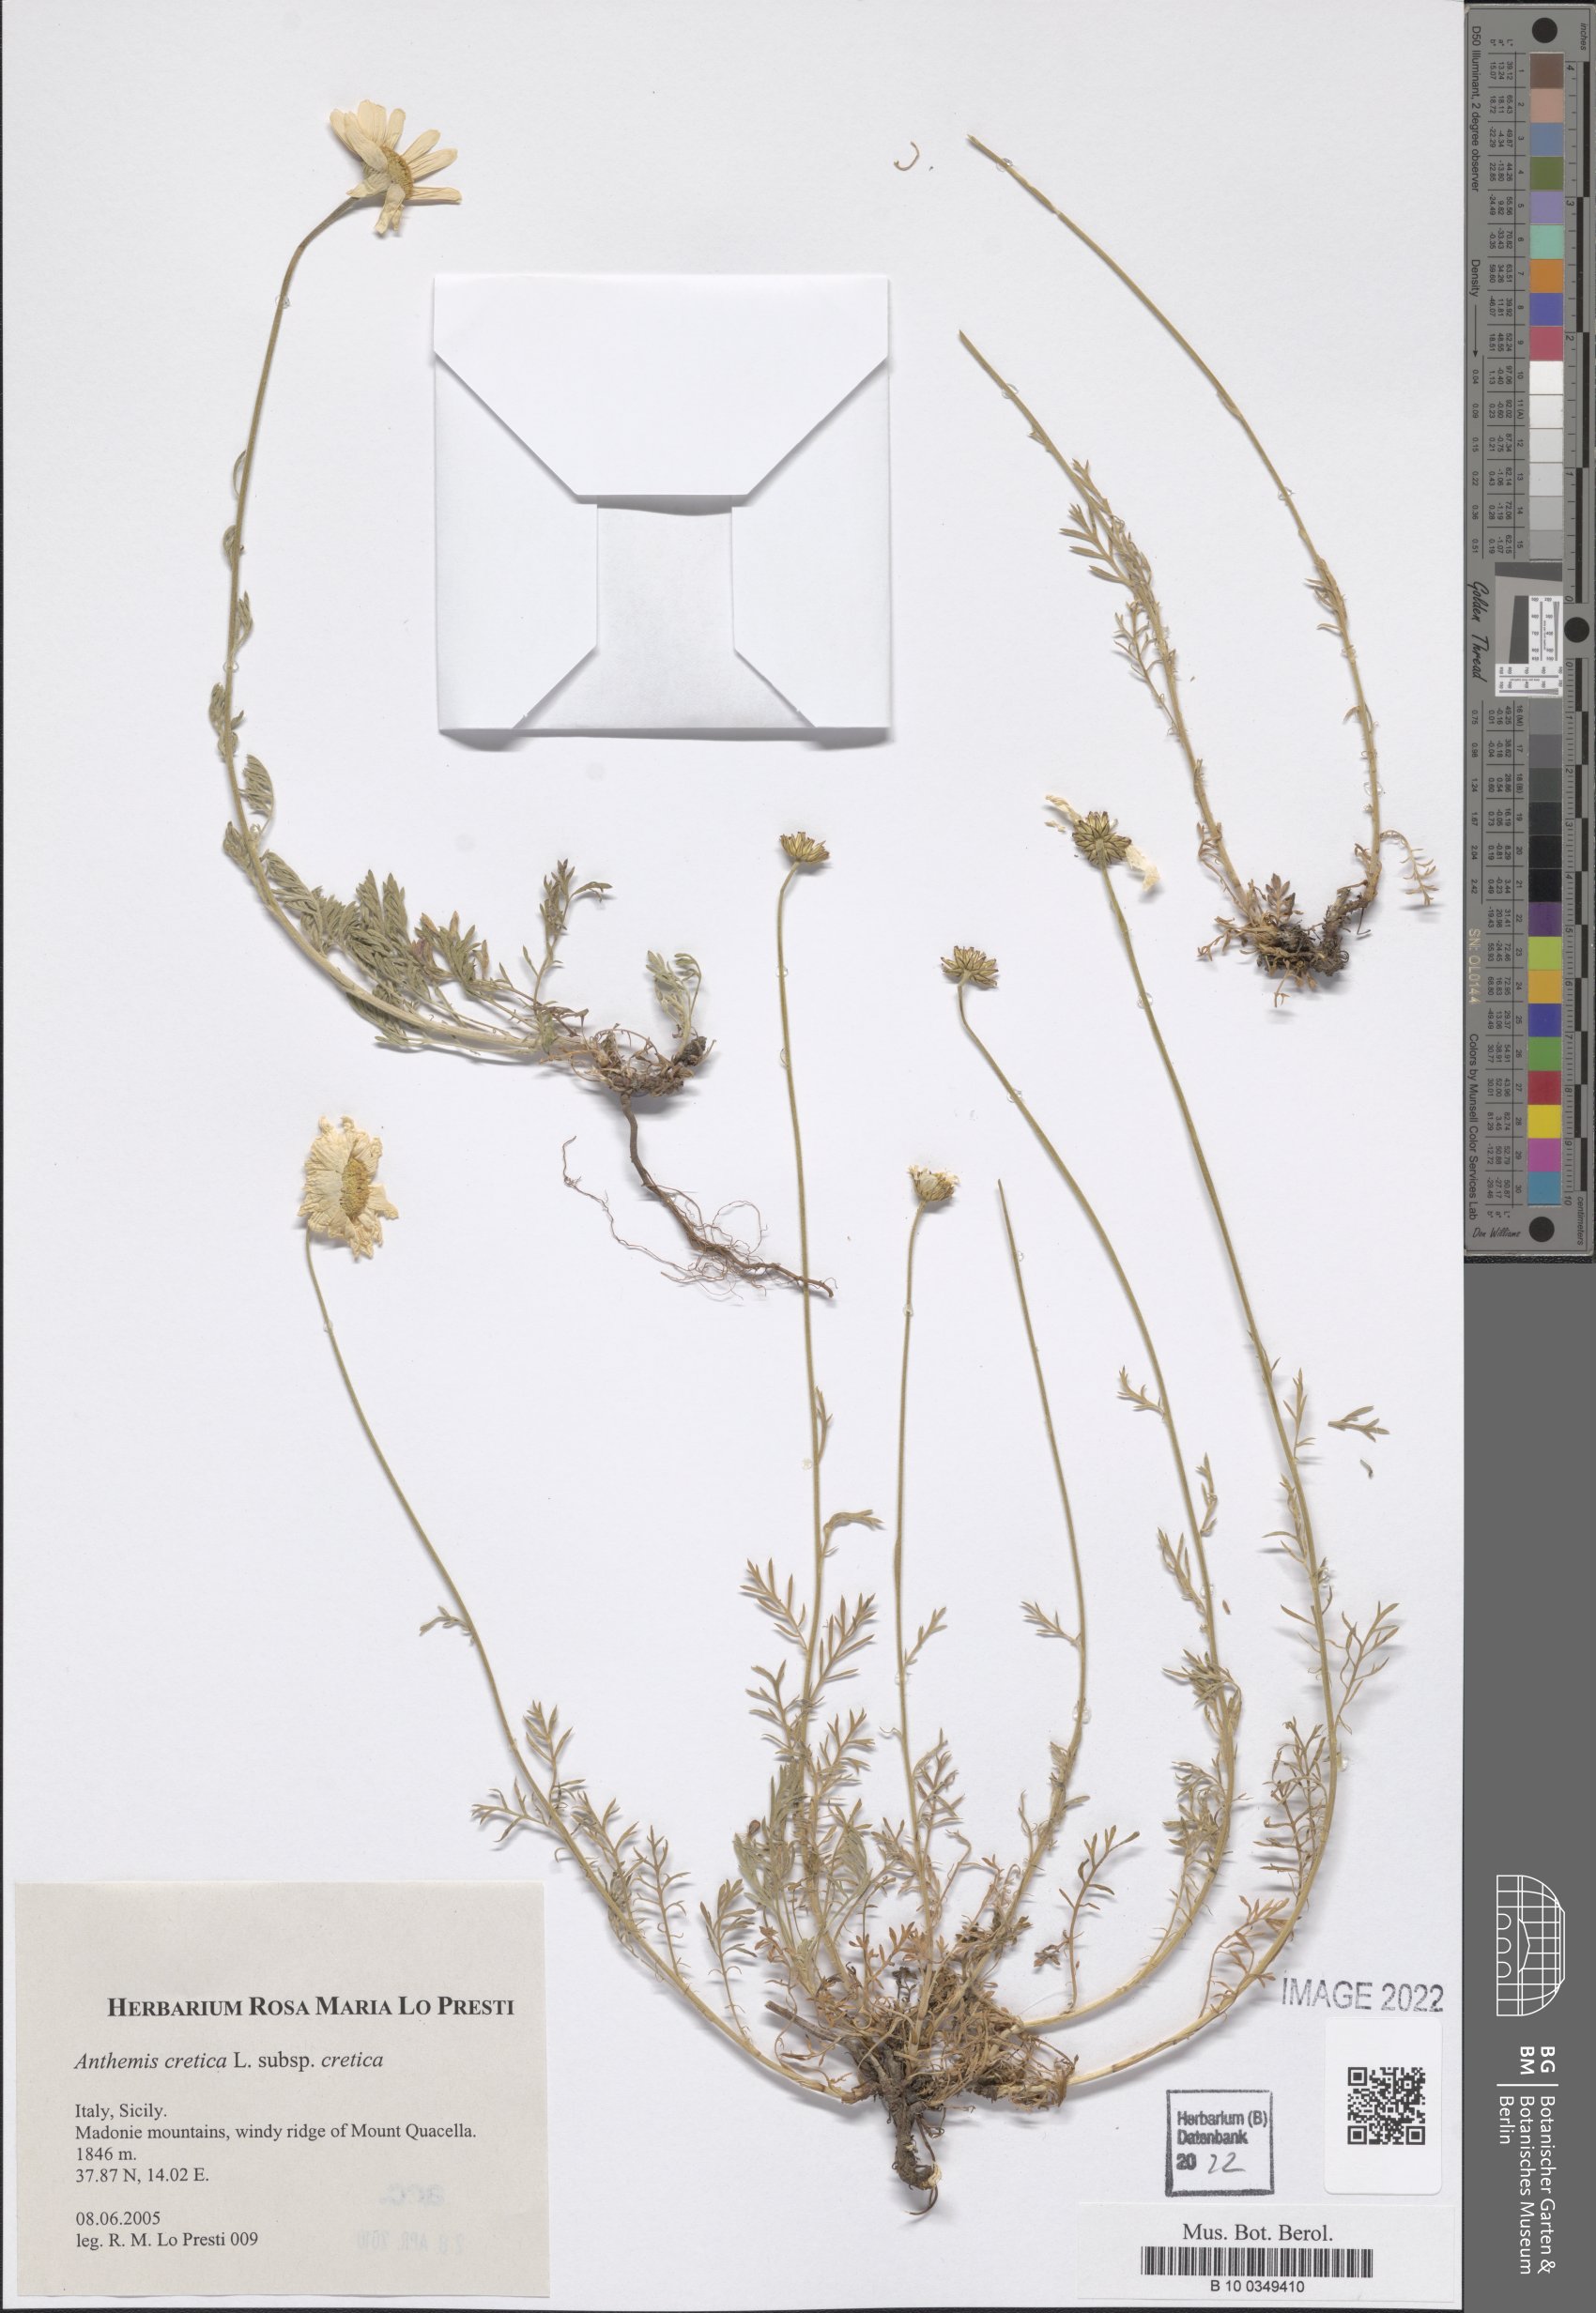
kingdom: Plantae
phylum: Tracheophyta
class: Magnoliopsida
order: Asterales
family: Asteraceae
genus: Anthemis
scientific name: Anthemis cretica
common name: Mountain dog-daisy
